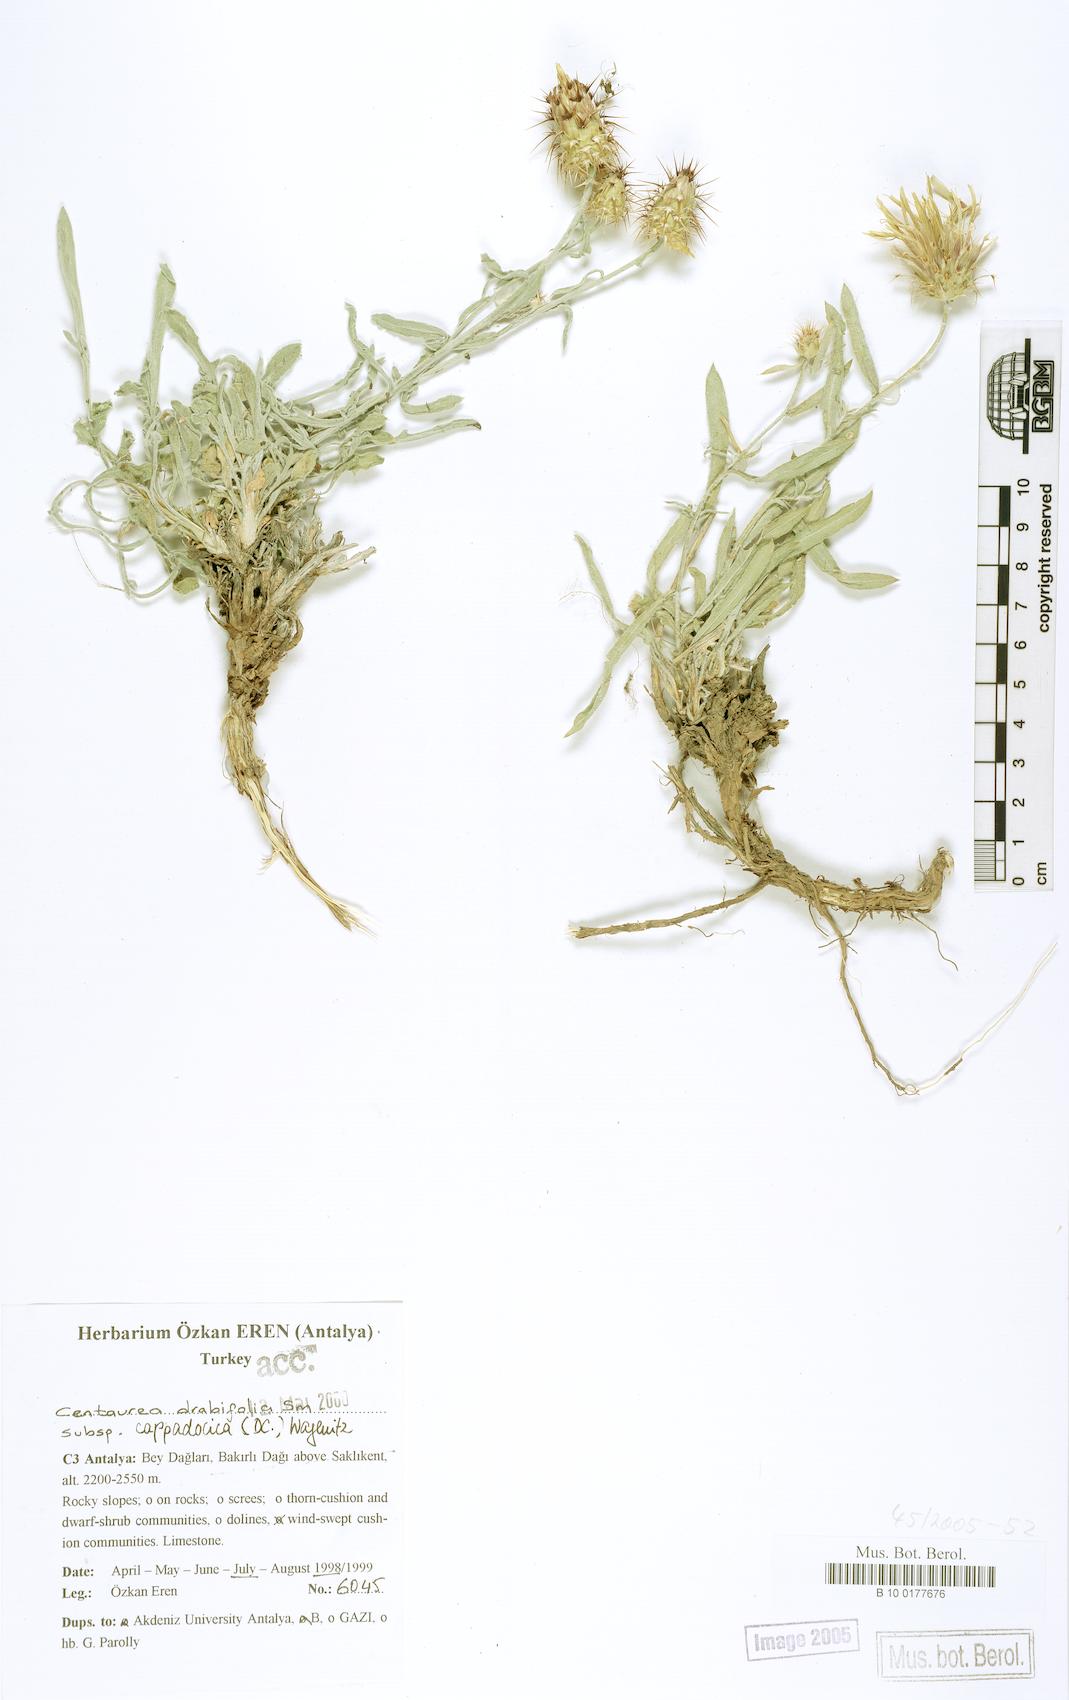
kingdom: Plantae
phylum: Tracheophyta
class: Magnoliopsida
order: Asterales
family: Asteraceae
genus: Centaurea
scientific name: Centaurea drabifolia
